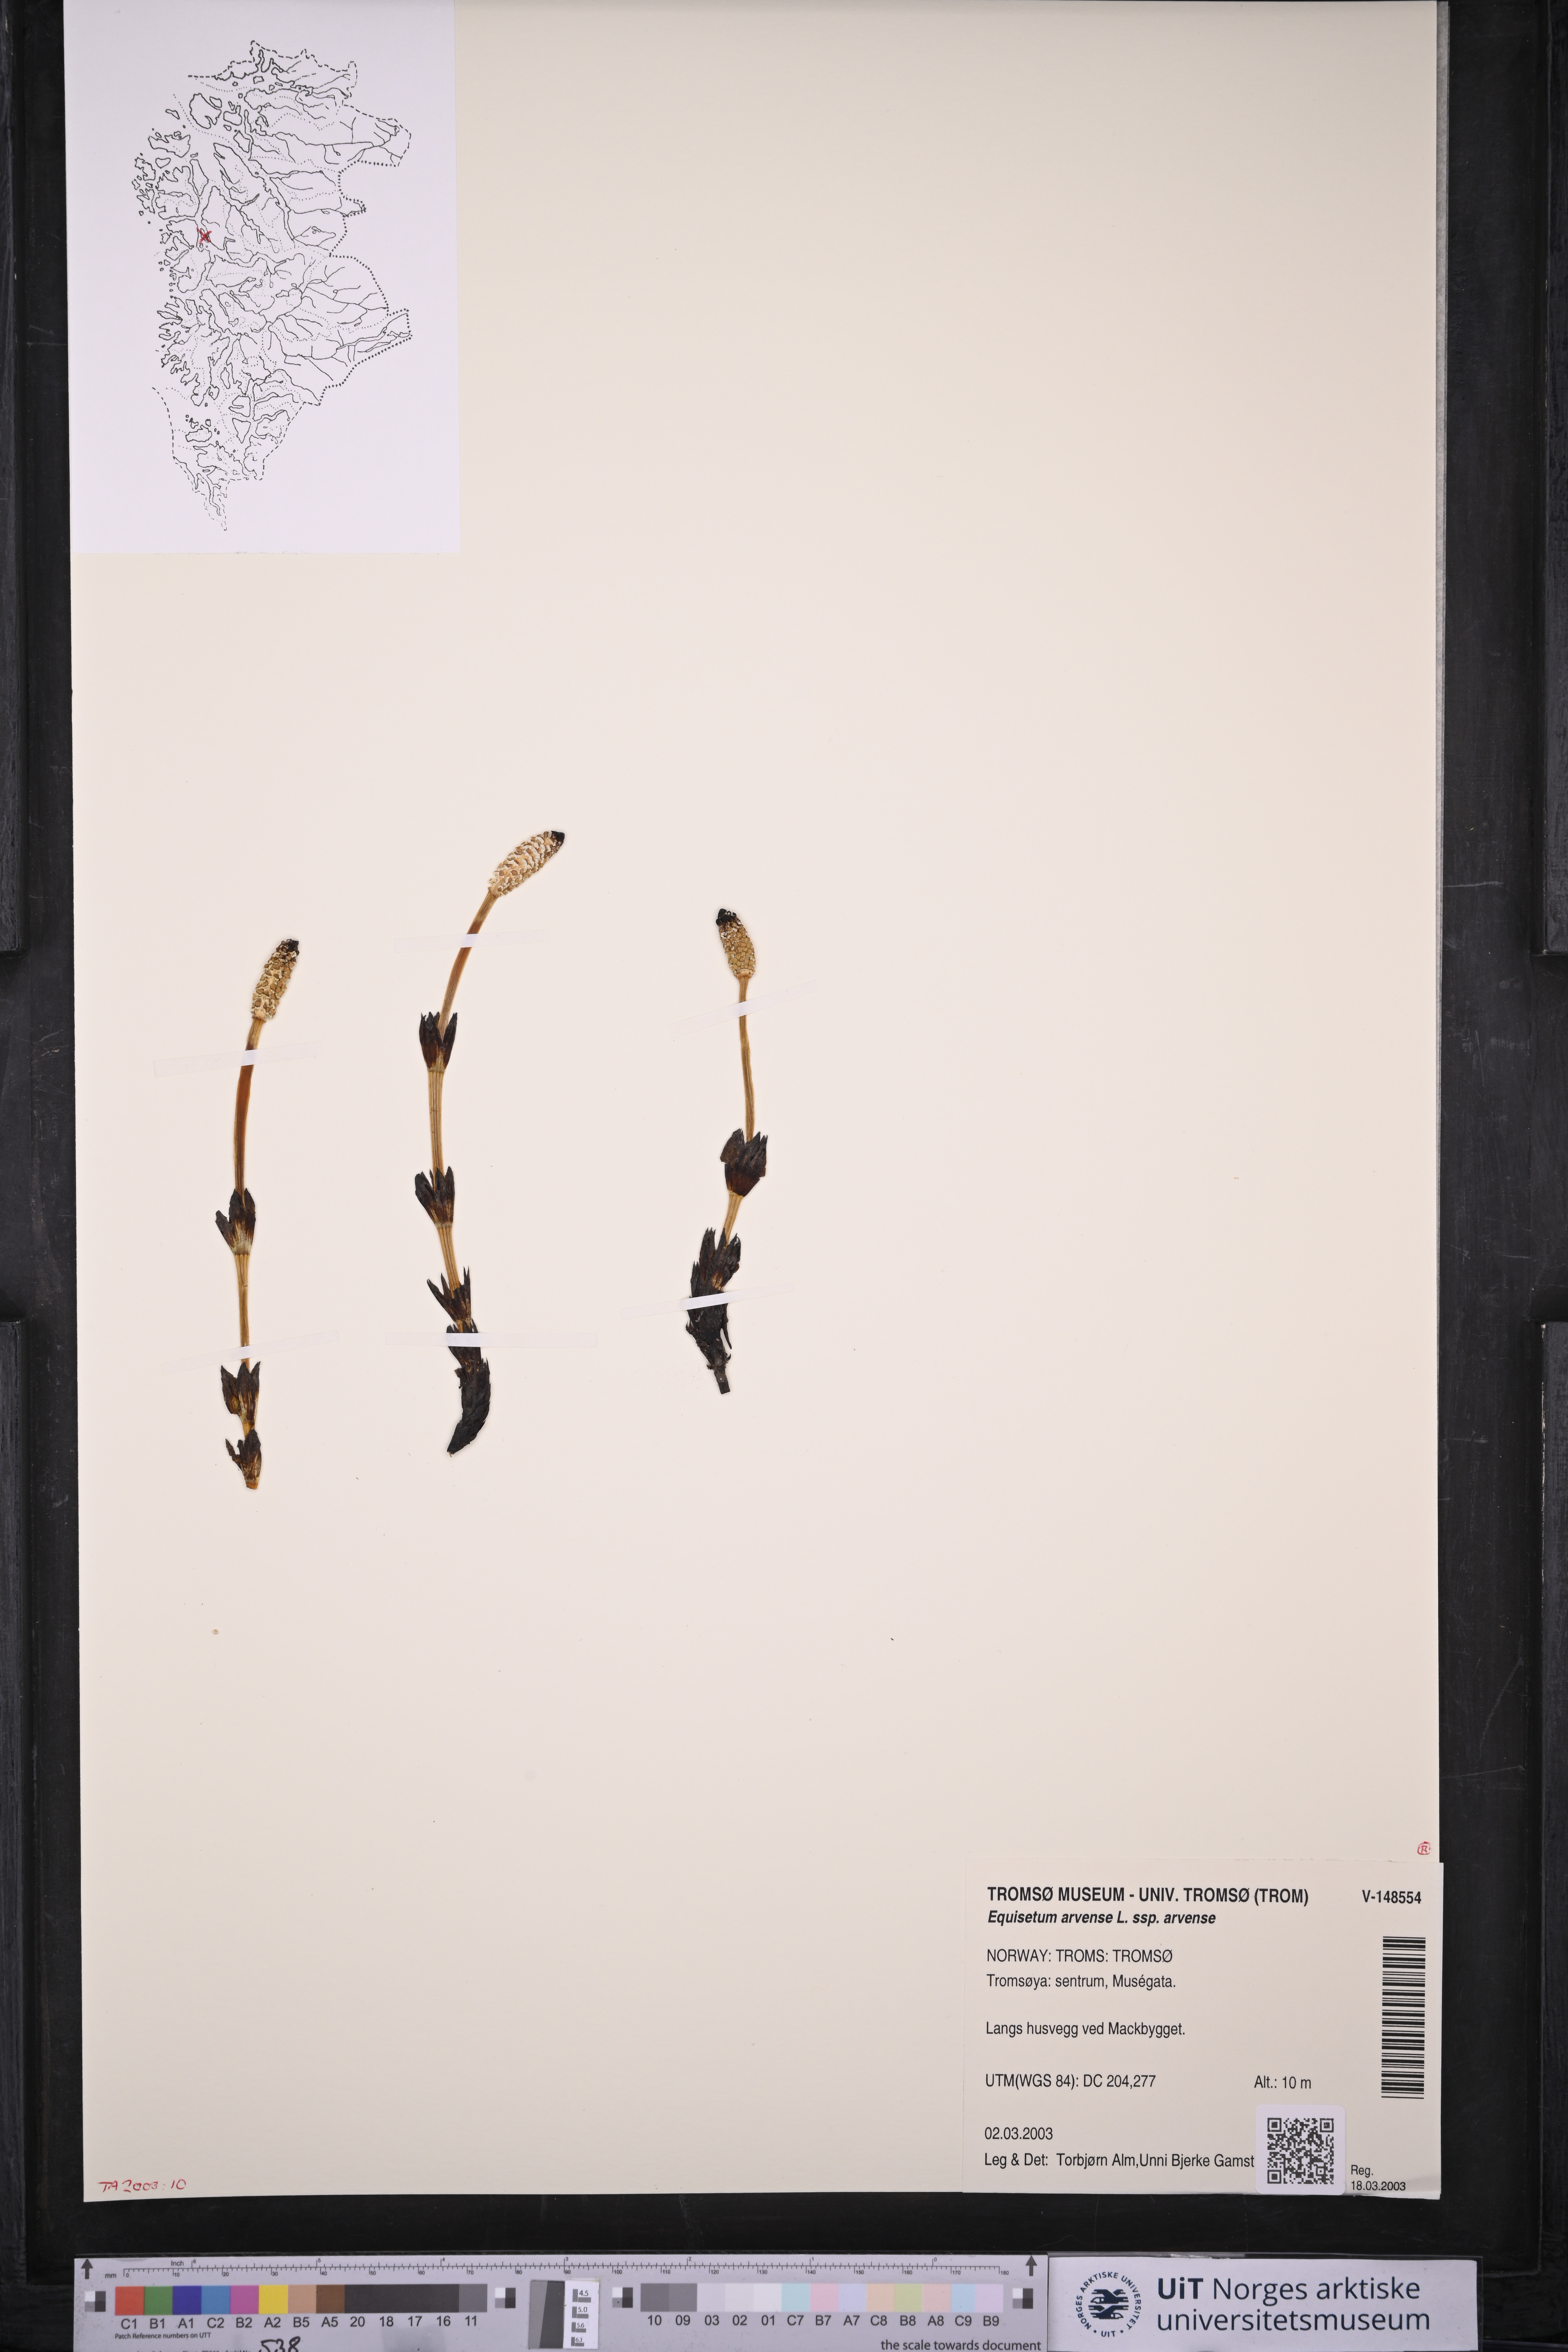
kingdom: Plantae
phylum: Tracheophyta
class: Polypodiopsida
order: Equisetales
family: Equisetaceae
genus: Equisetum
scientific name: Equisetum arvense
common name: Field horsetail
